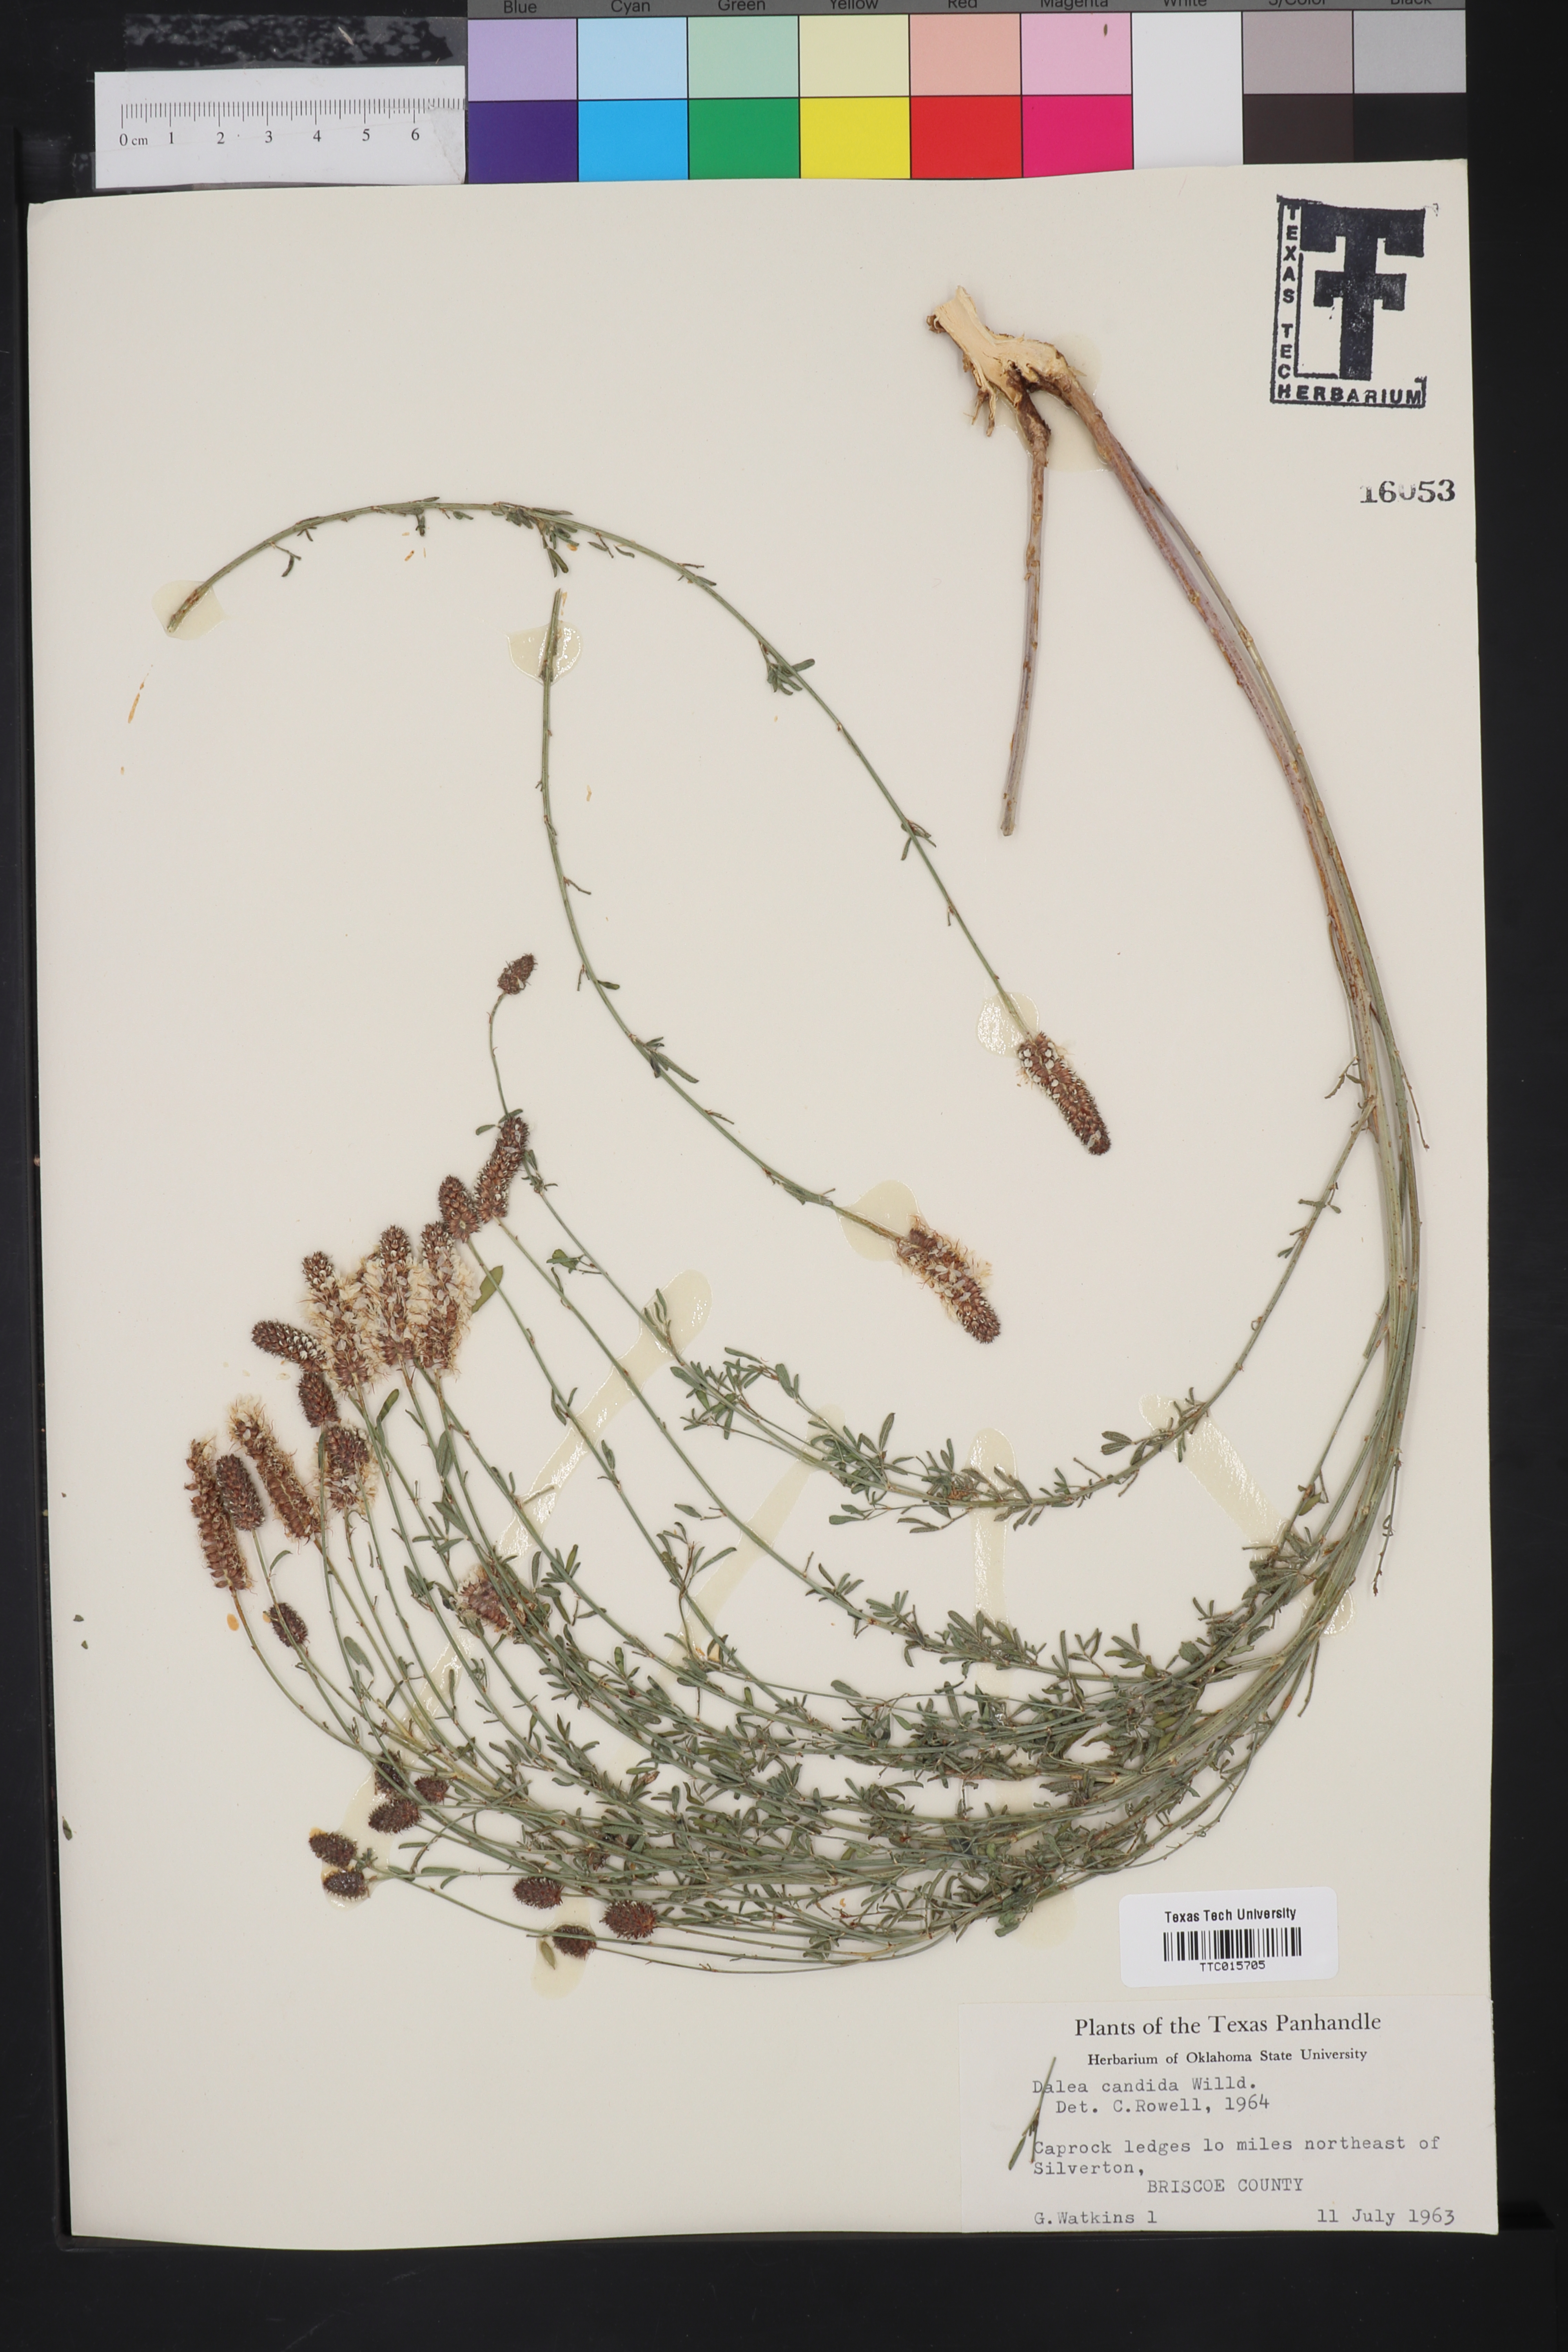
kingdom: Plantae
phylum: Tracheophyta
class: Magnoliopsida
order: Fabales
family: Fabaceae
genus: Petalostemum
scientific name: Petalostemum
